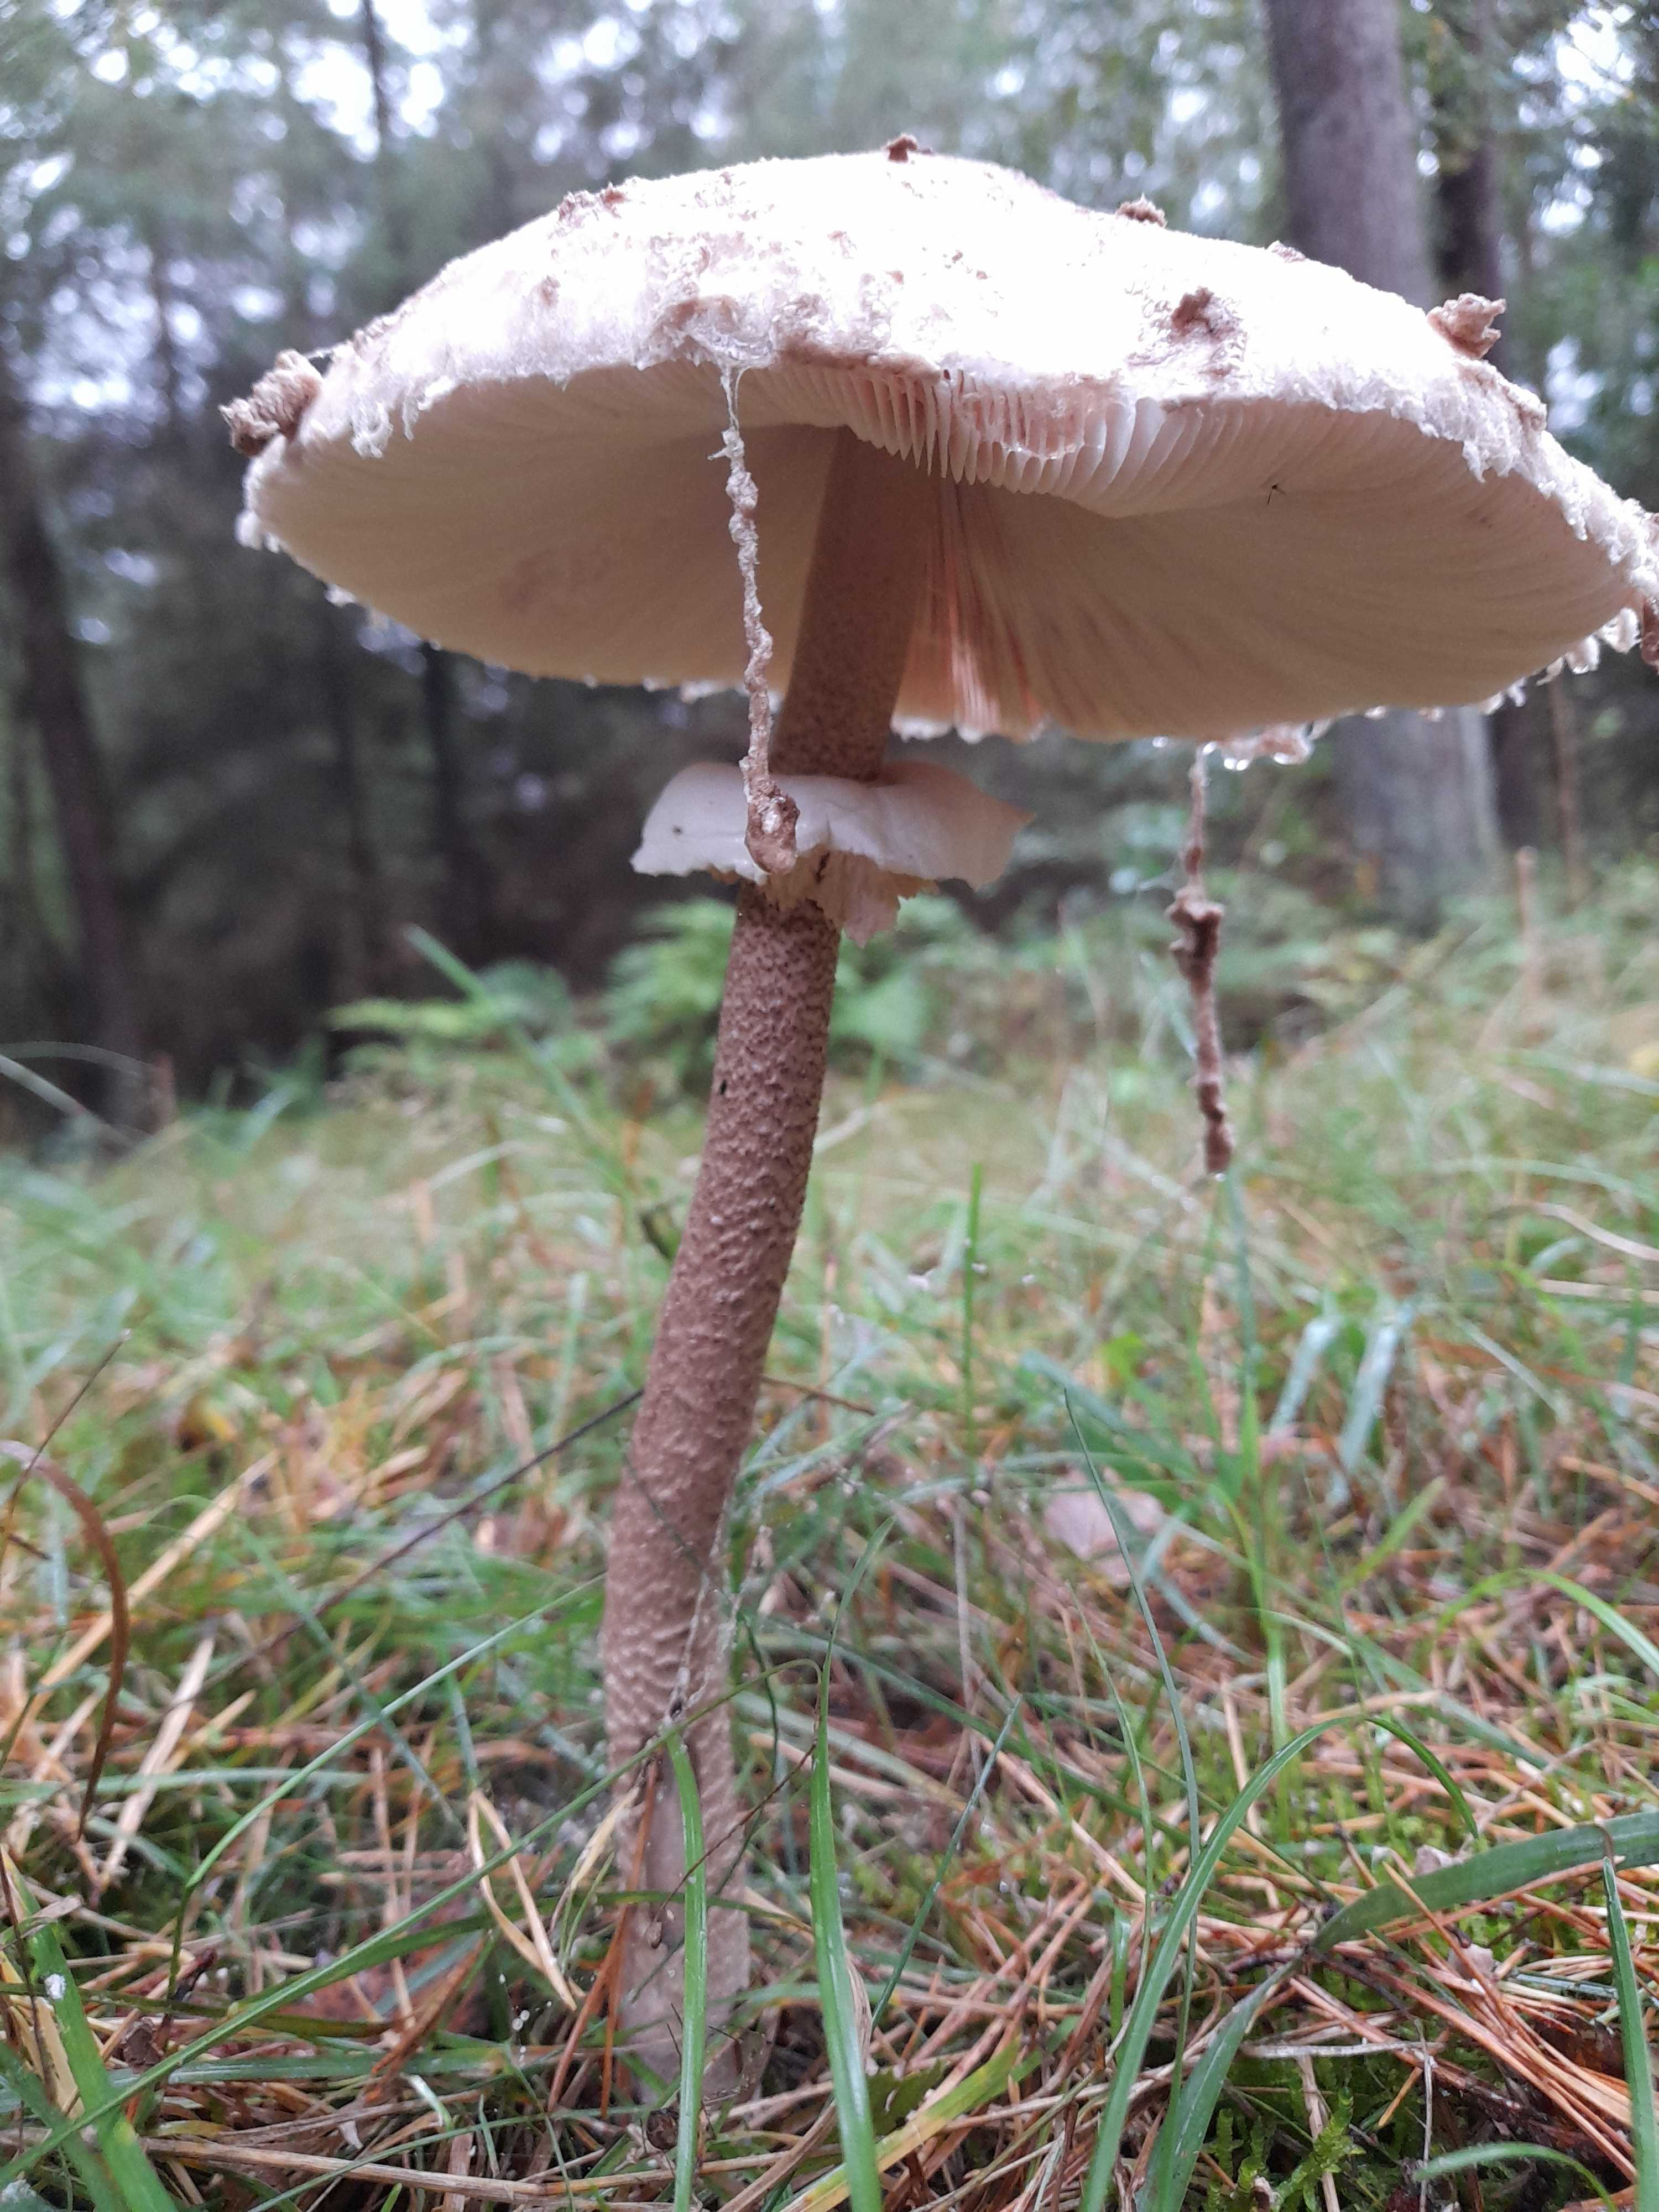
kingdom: Fungi
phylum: Basidiomycota
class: Agaricomycetes
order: Agaricales
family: Agaricaceae
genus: Macrolepiota
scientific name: Macrolepiota procera
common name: stor kæmpeparasolhat
